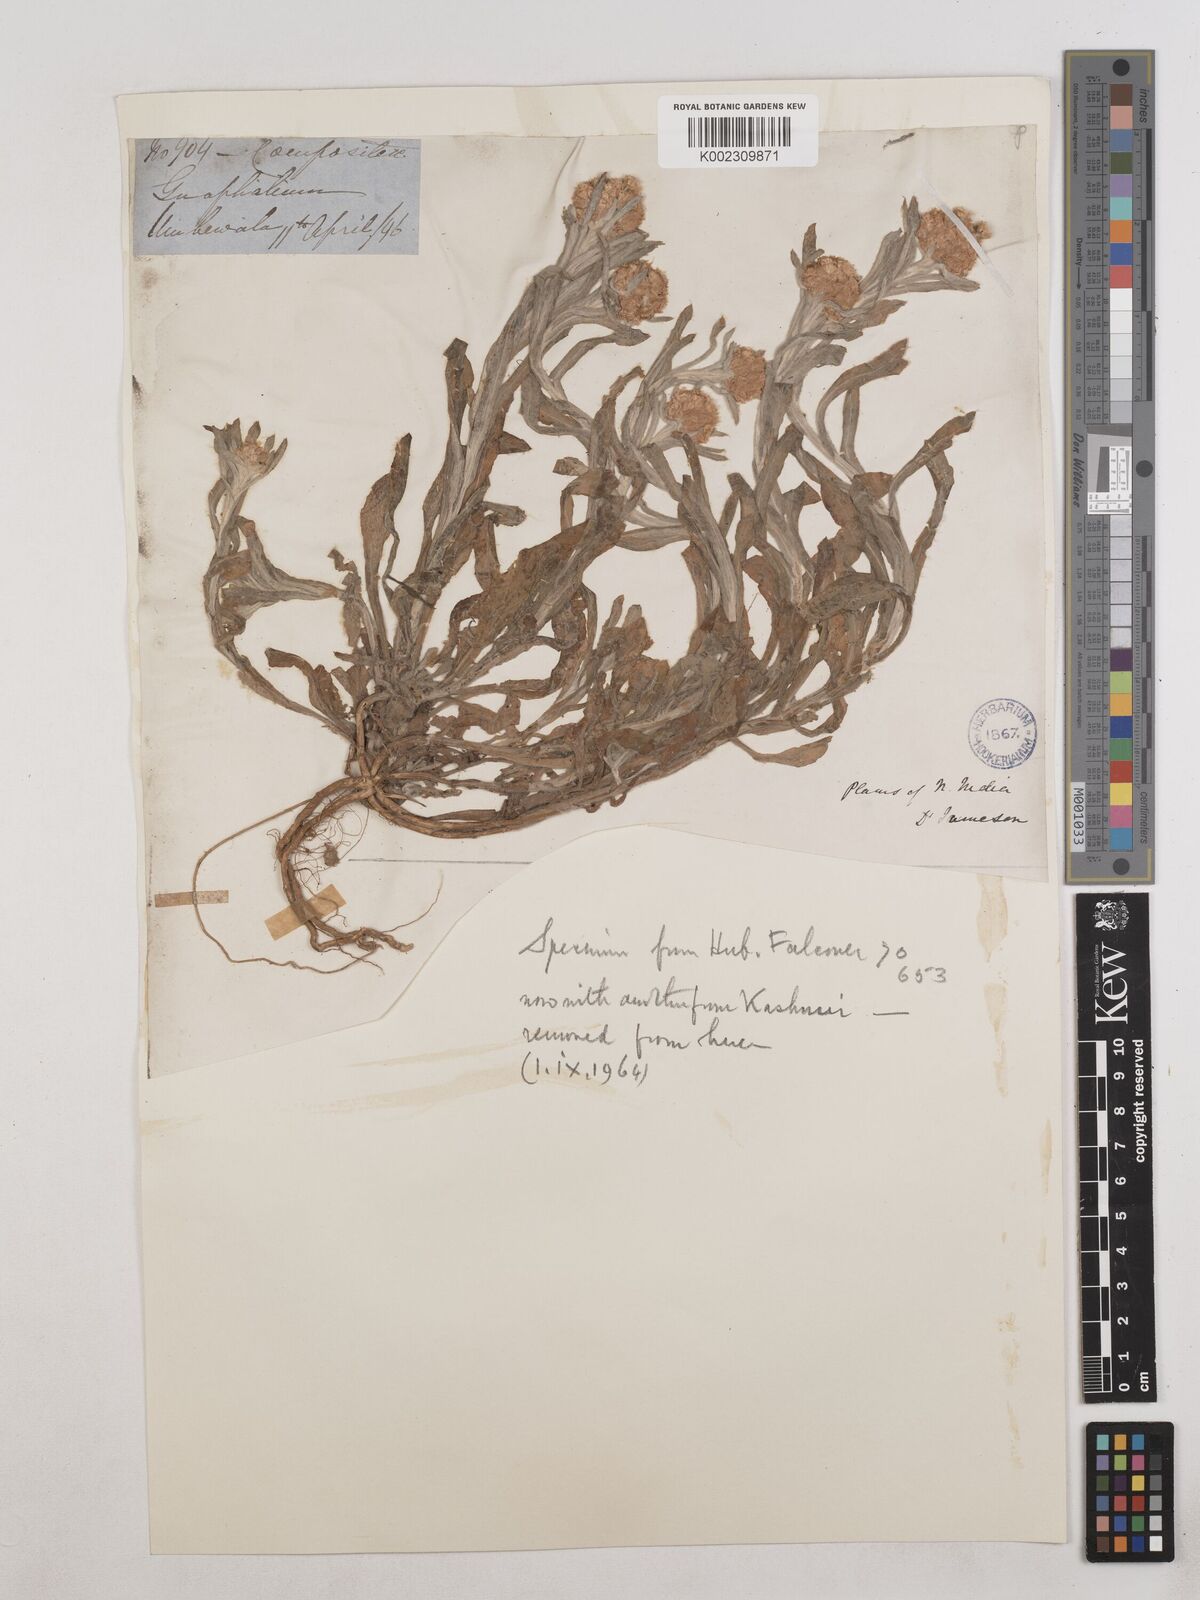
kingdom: Plantae
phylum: Tracheophyta
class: Magnoliopsida
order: Asterales
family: Asteraceae
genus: Helichrysum
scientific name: Helichrysum luteoalbum
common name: Daisy
